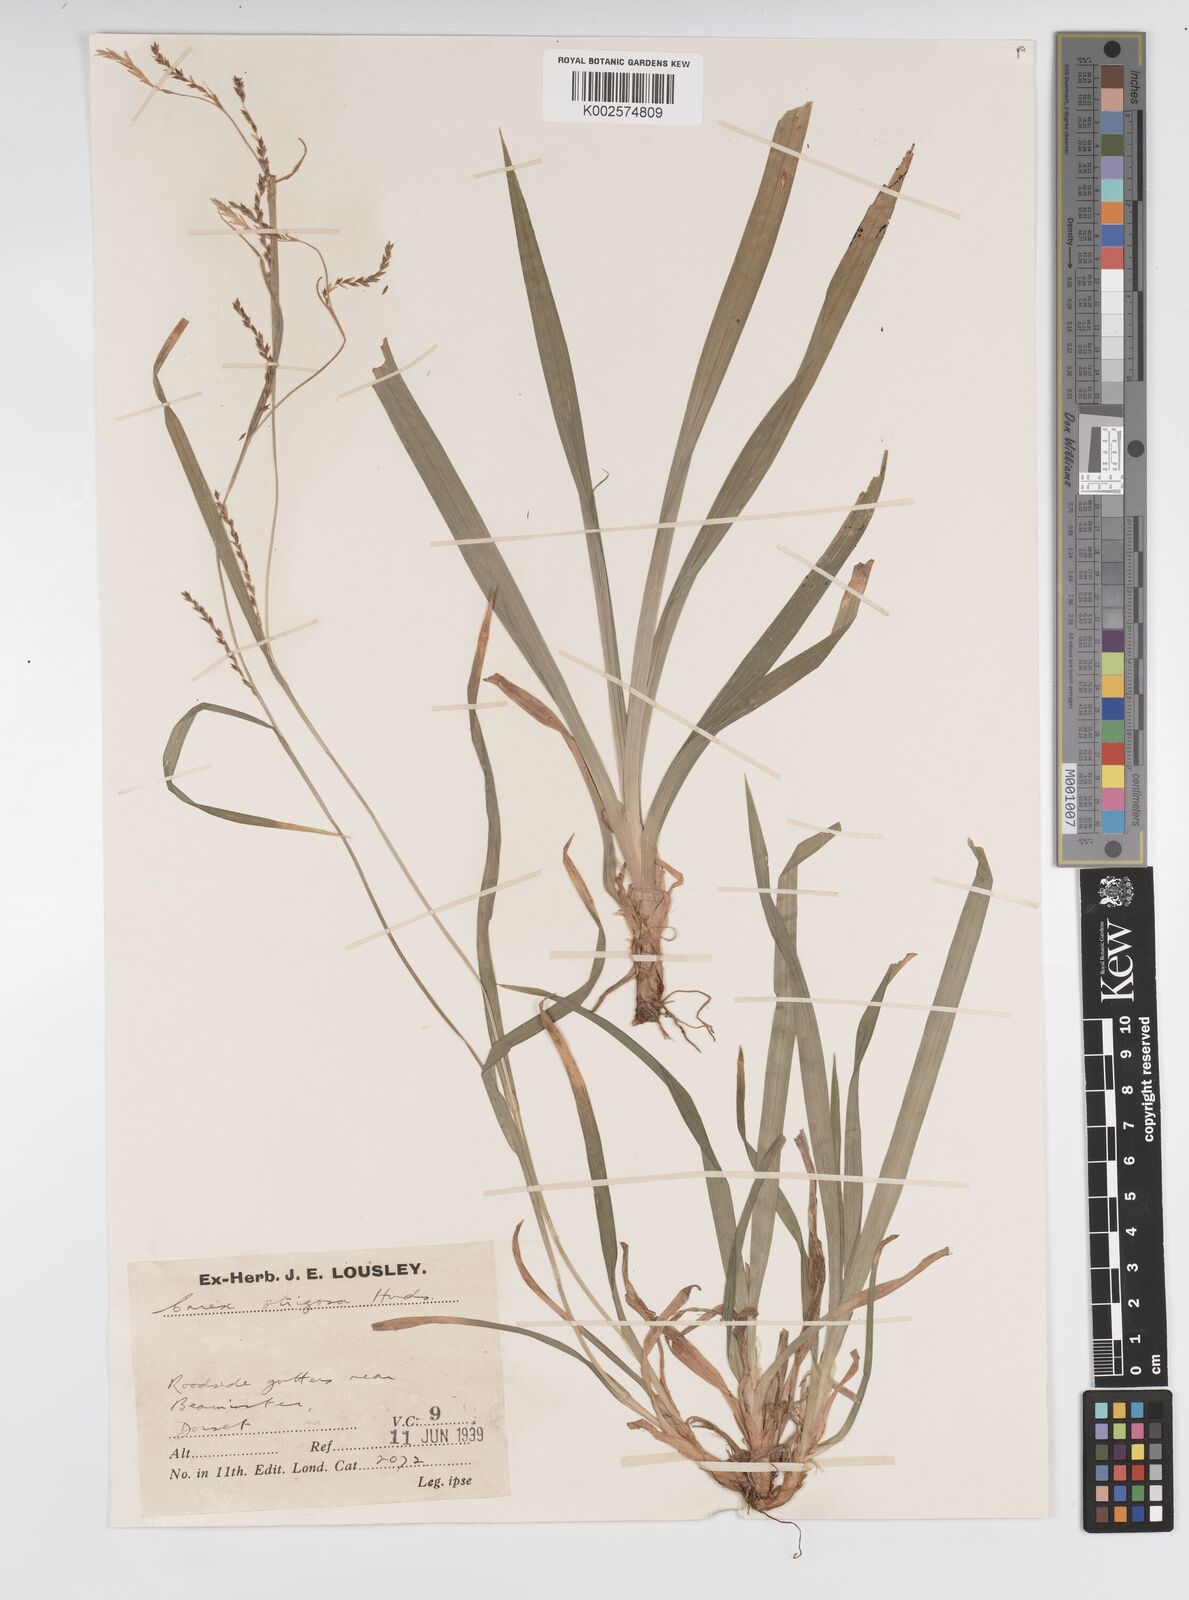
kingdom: Plantae
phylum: Tracheophyta
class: Liliopsida
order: Poales
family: Cyperaceae
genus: Carex
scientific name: Carex strigosa
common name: Thin-spiked wood-sedge
